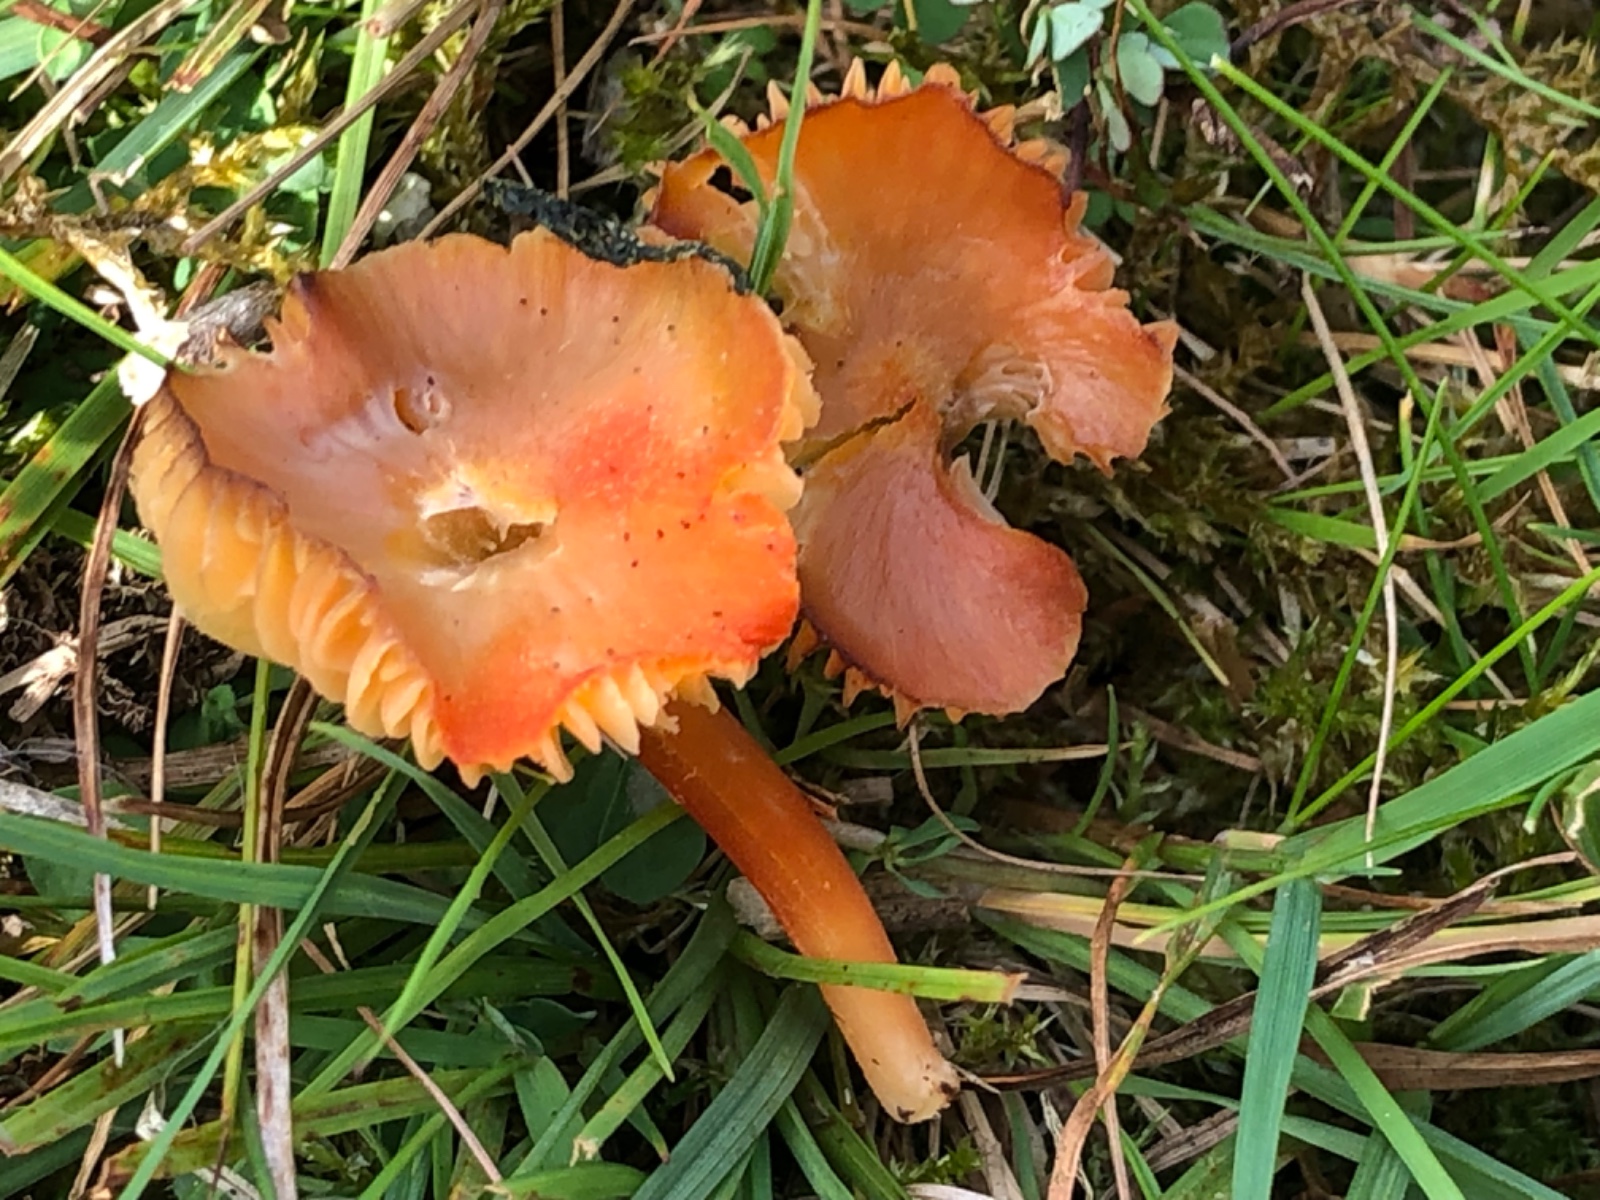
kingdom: Fungi
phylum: Basidiomycota
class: Agaricomycetes
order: Agaricales
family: Hygrophoraceae
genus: Hygrocybe
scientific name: Hygrocybe
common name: vokshat
